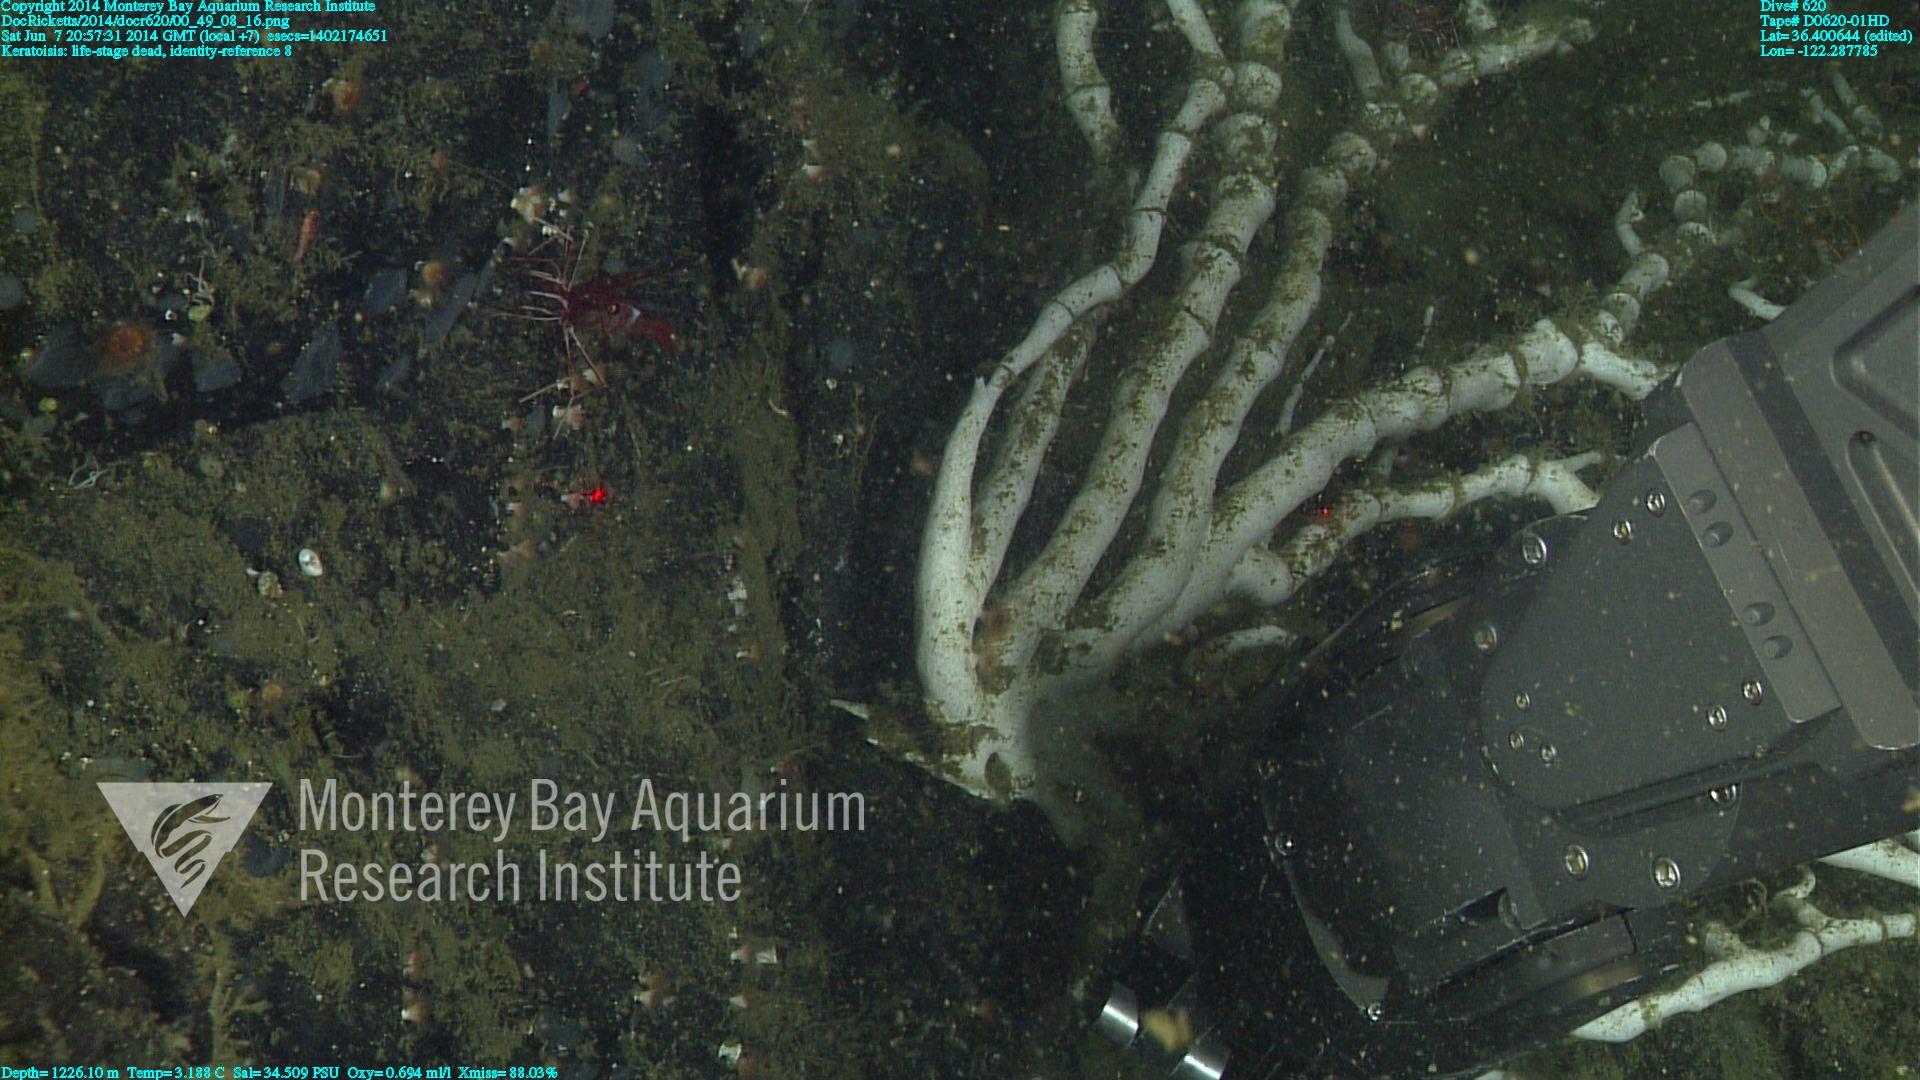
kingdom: Animalia
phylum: Cnidaria
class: Anthozoa
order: Scleralcyonacea
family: Keratoisididae
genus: Keratoisis
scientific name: Keratoisis
